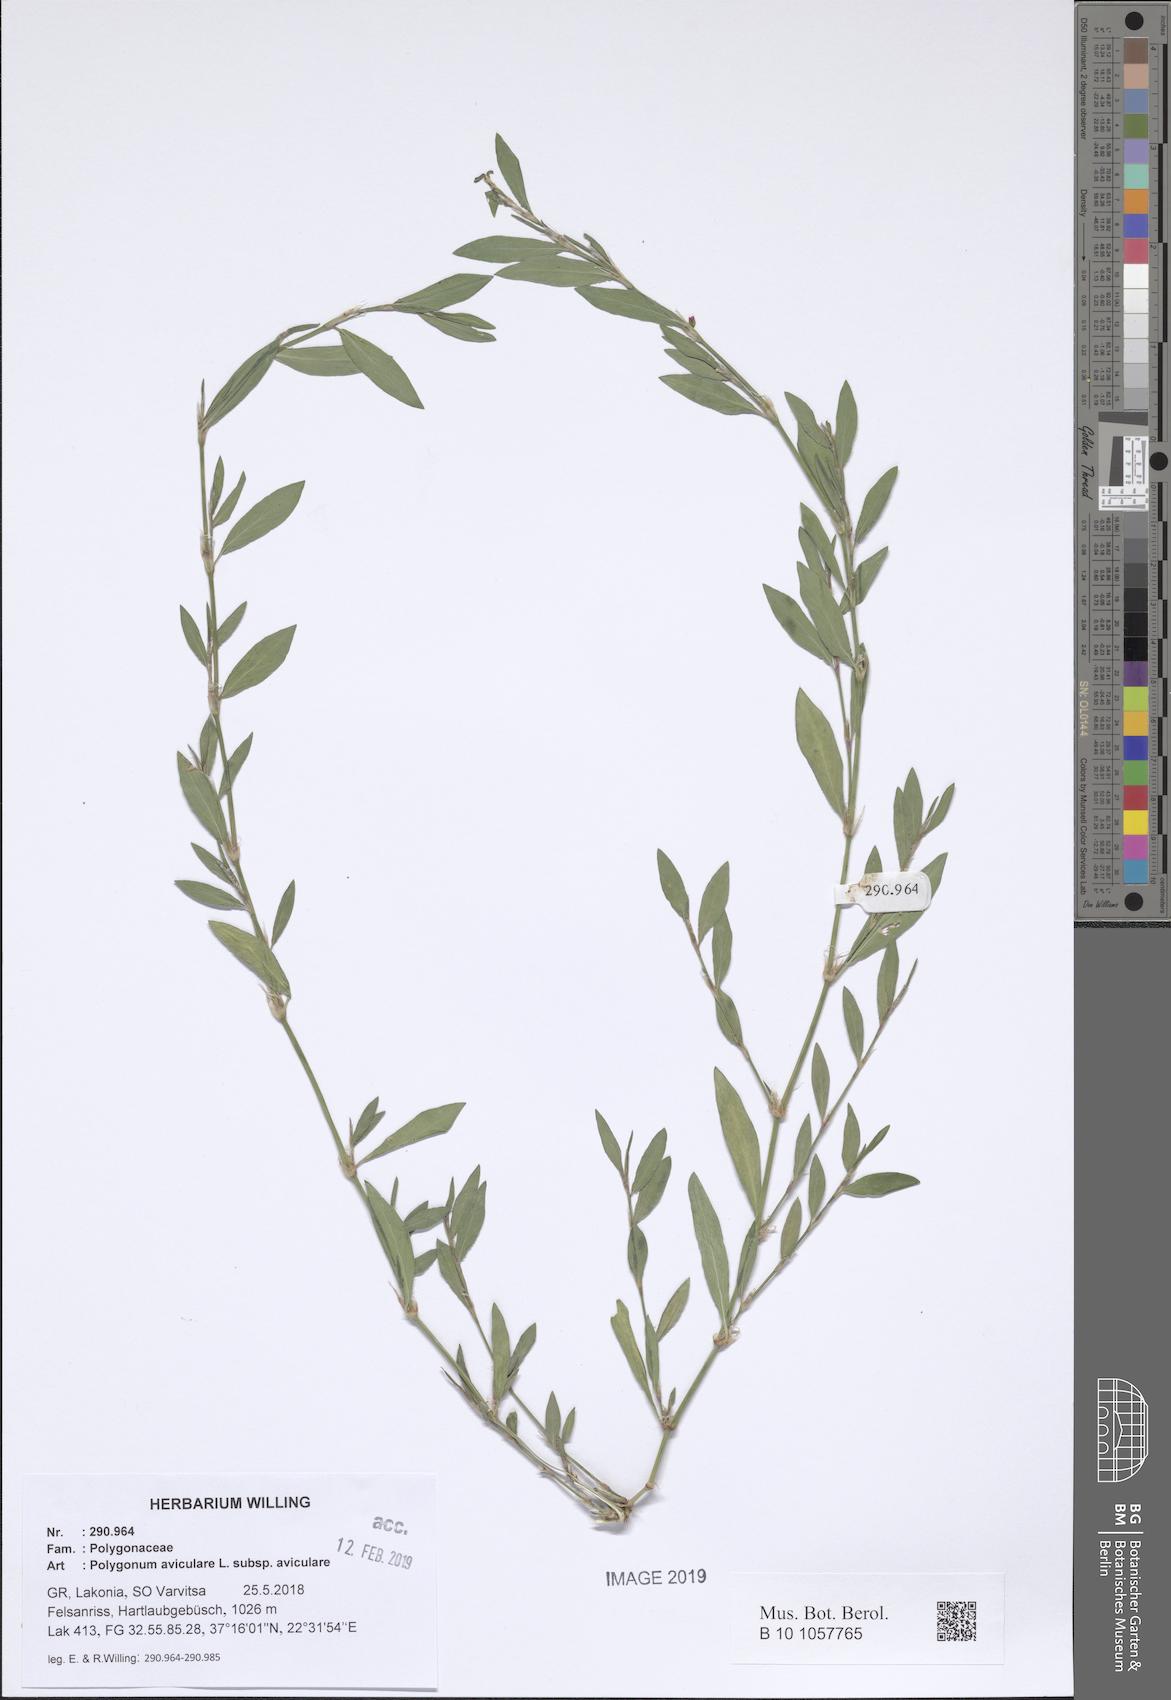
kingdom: Plantae
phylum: Tracheophyta
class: Magnoliopsida
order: Caryophyllales
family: Polygonaceae
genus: Polygonum
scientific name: Polygonum aviculare
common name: Prostrate knotweed
